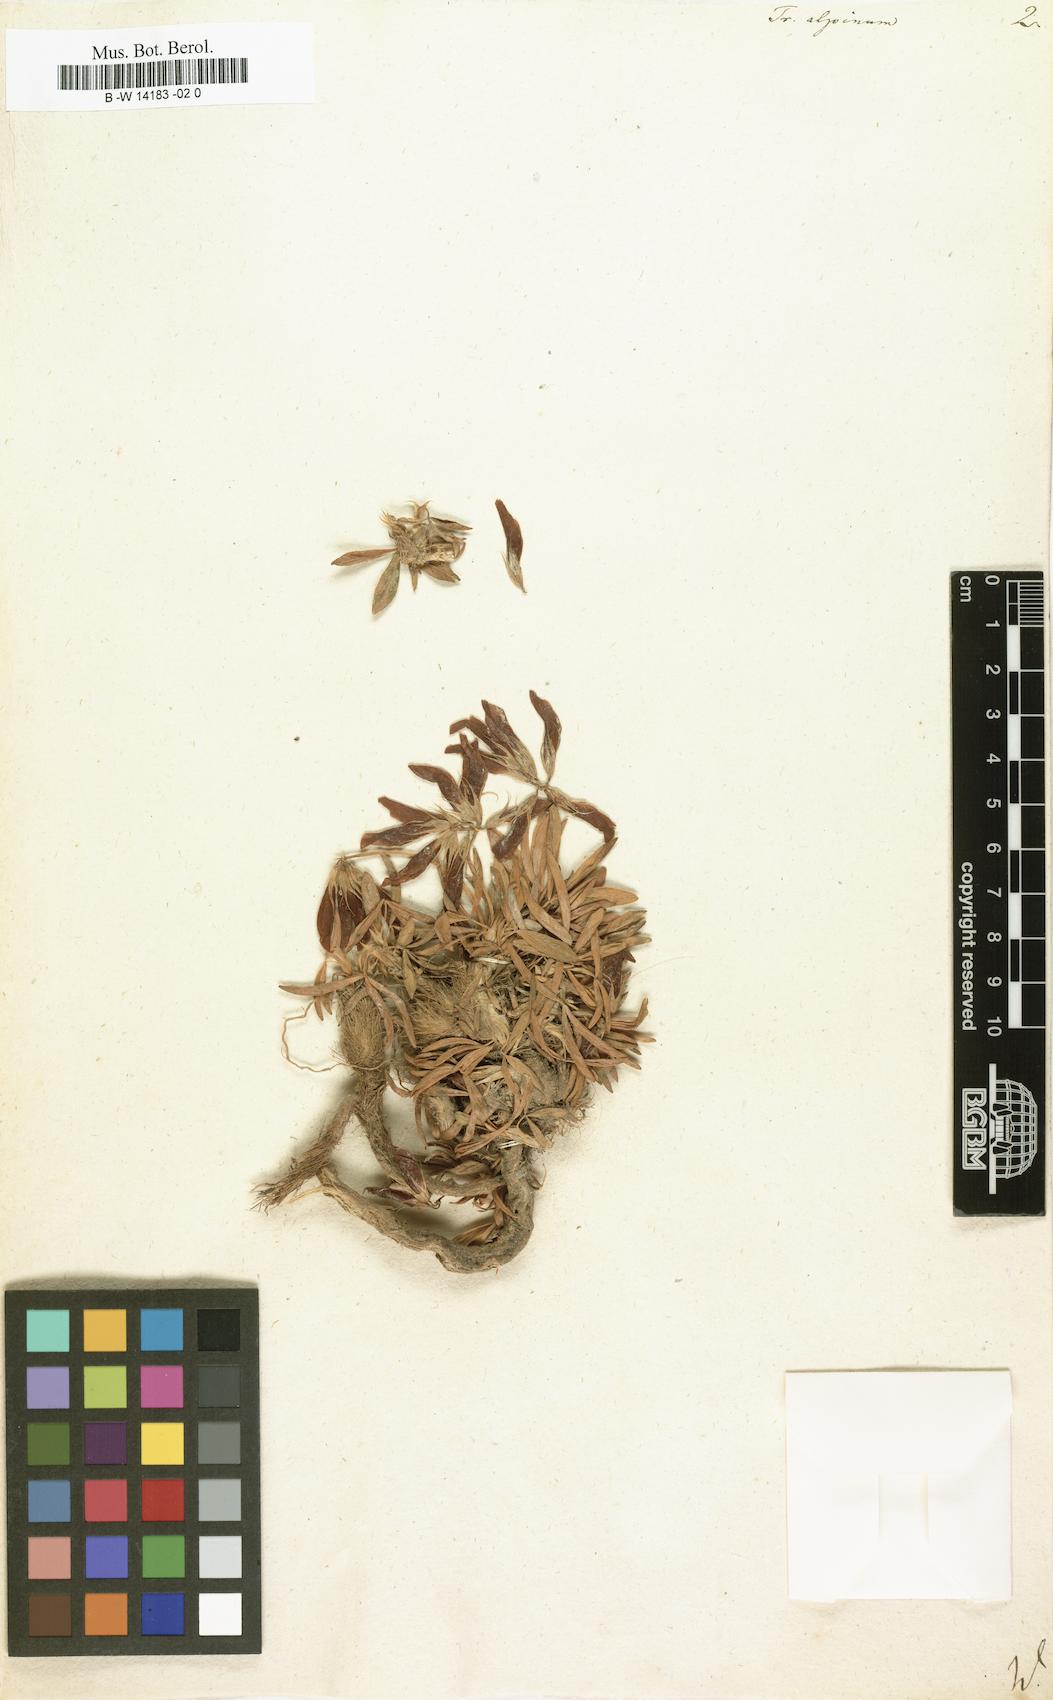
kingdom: Plantae
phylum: Tracheophyta
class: Magnoliopsida
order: Fabales
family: Fabaceae
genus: Trifolium
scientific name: Trifolium alpinum
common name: Alpine clover
